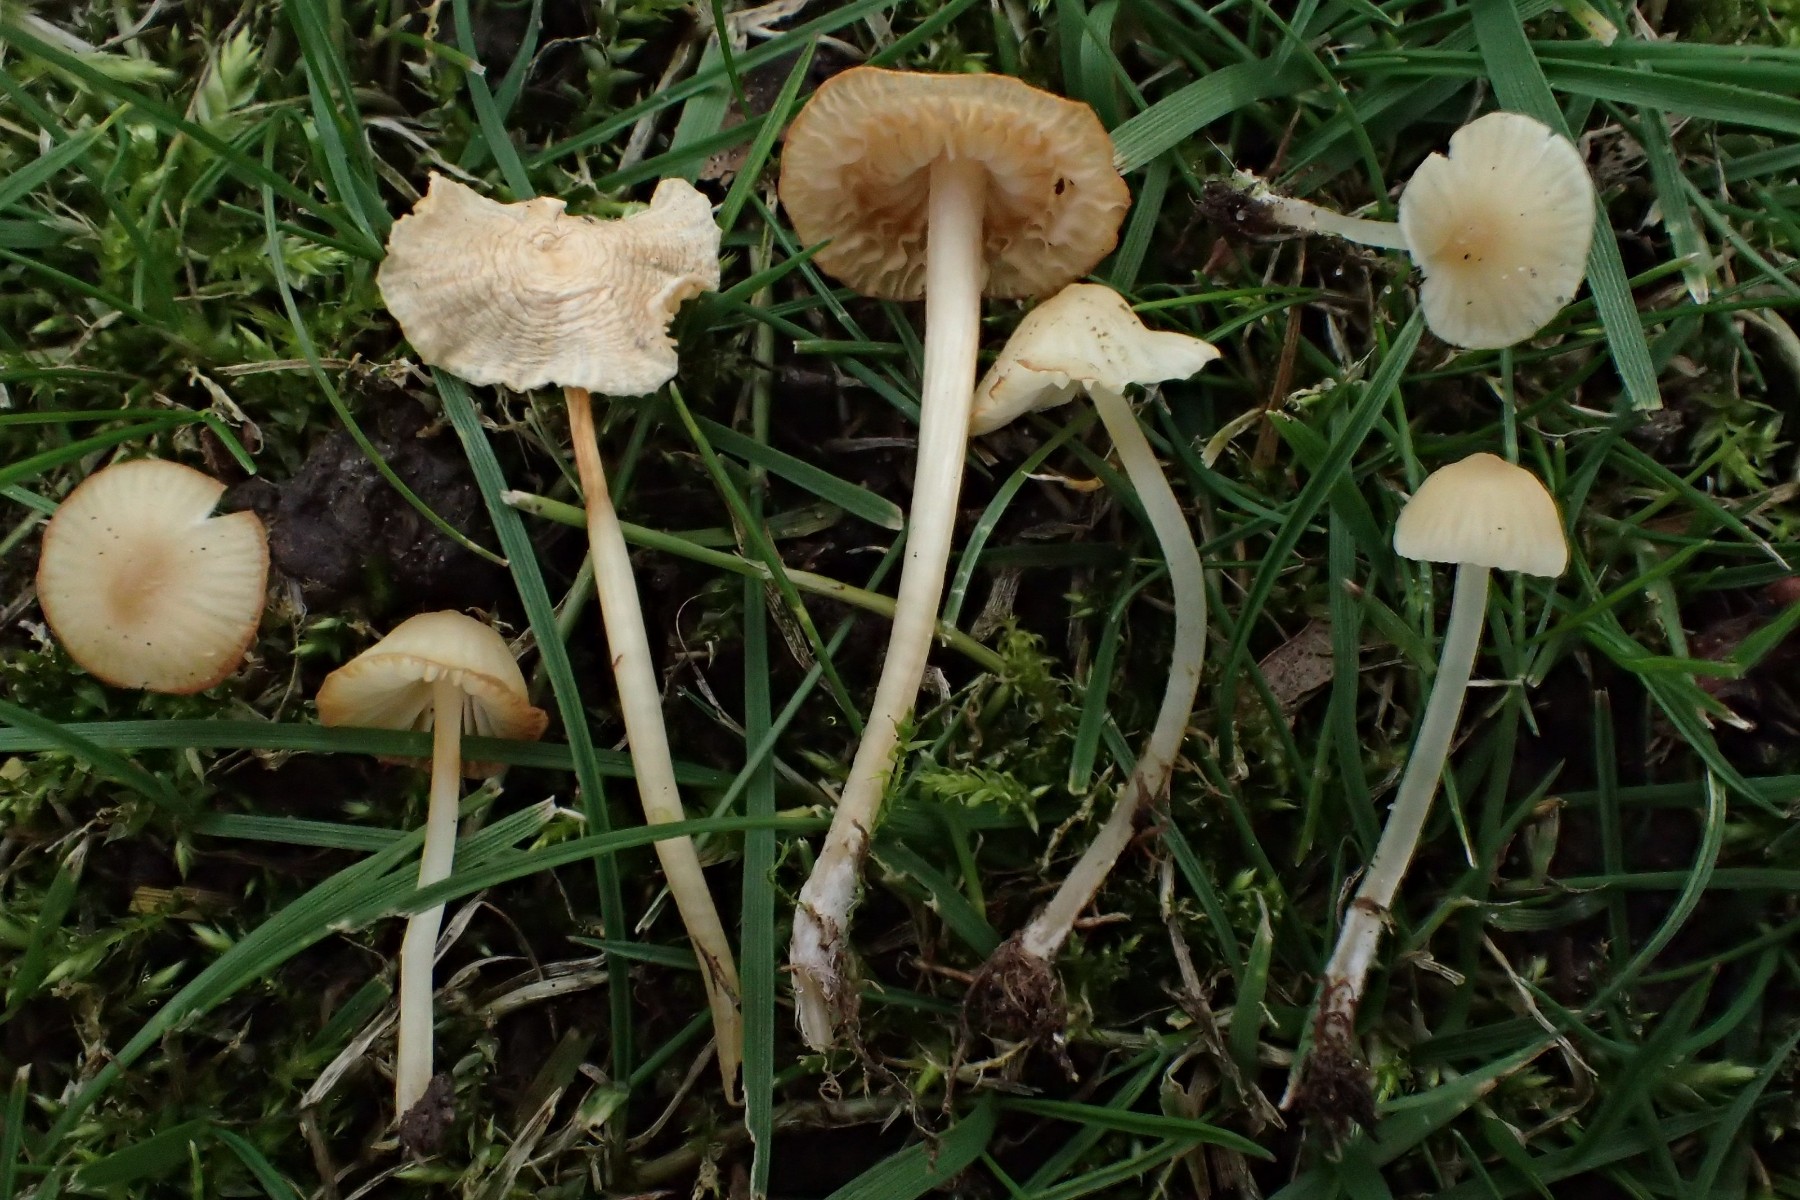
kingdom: Fungi
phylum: Basidiomycota
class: Agaricomycetes
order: Agaricales
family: Mycenaceae
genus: Atheniella
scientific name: Atheniella flavoalba
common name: gulhvid huesvamp
